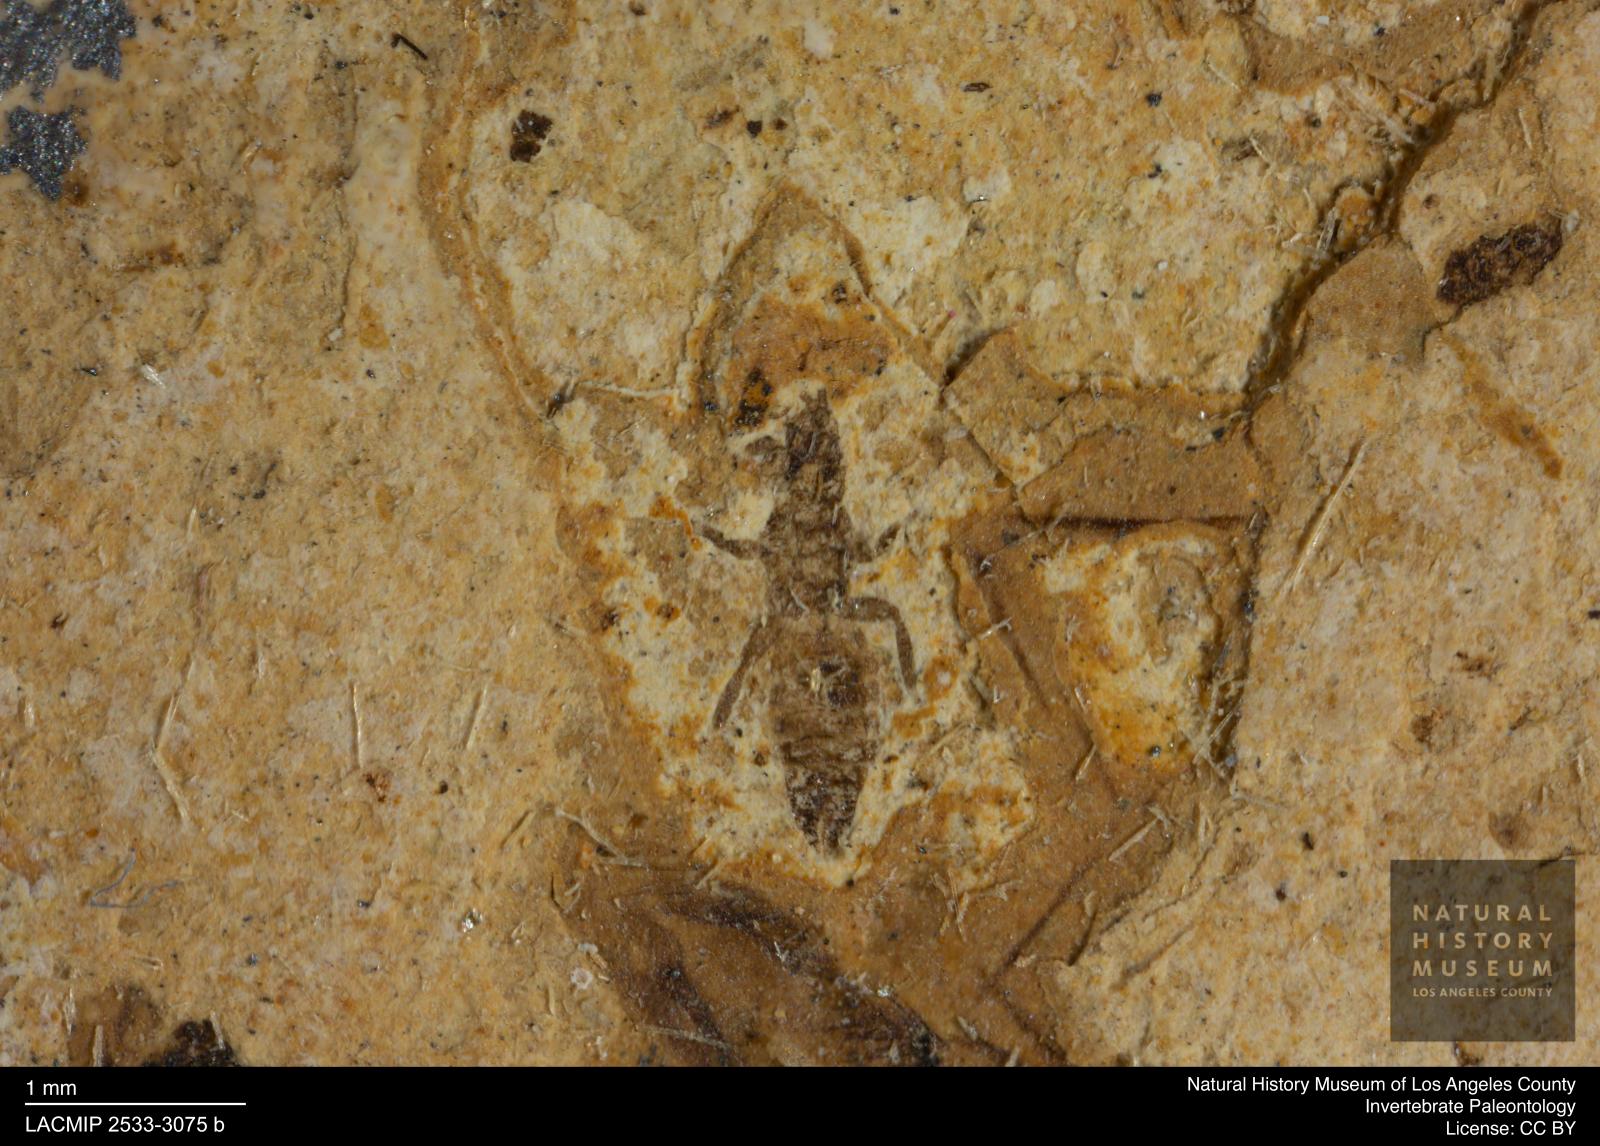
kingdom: Animalia
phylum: Arthropoda
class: Insecta
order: Thysanoptera
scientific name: Thysanoptera
